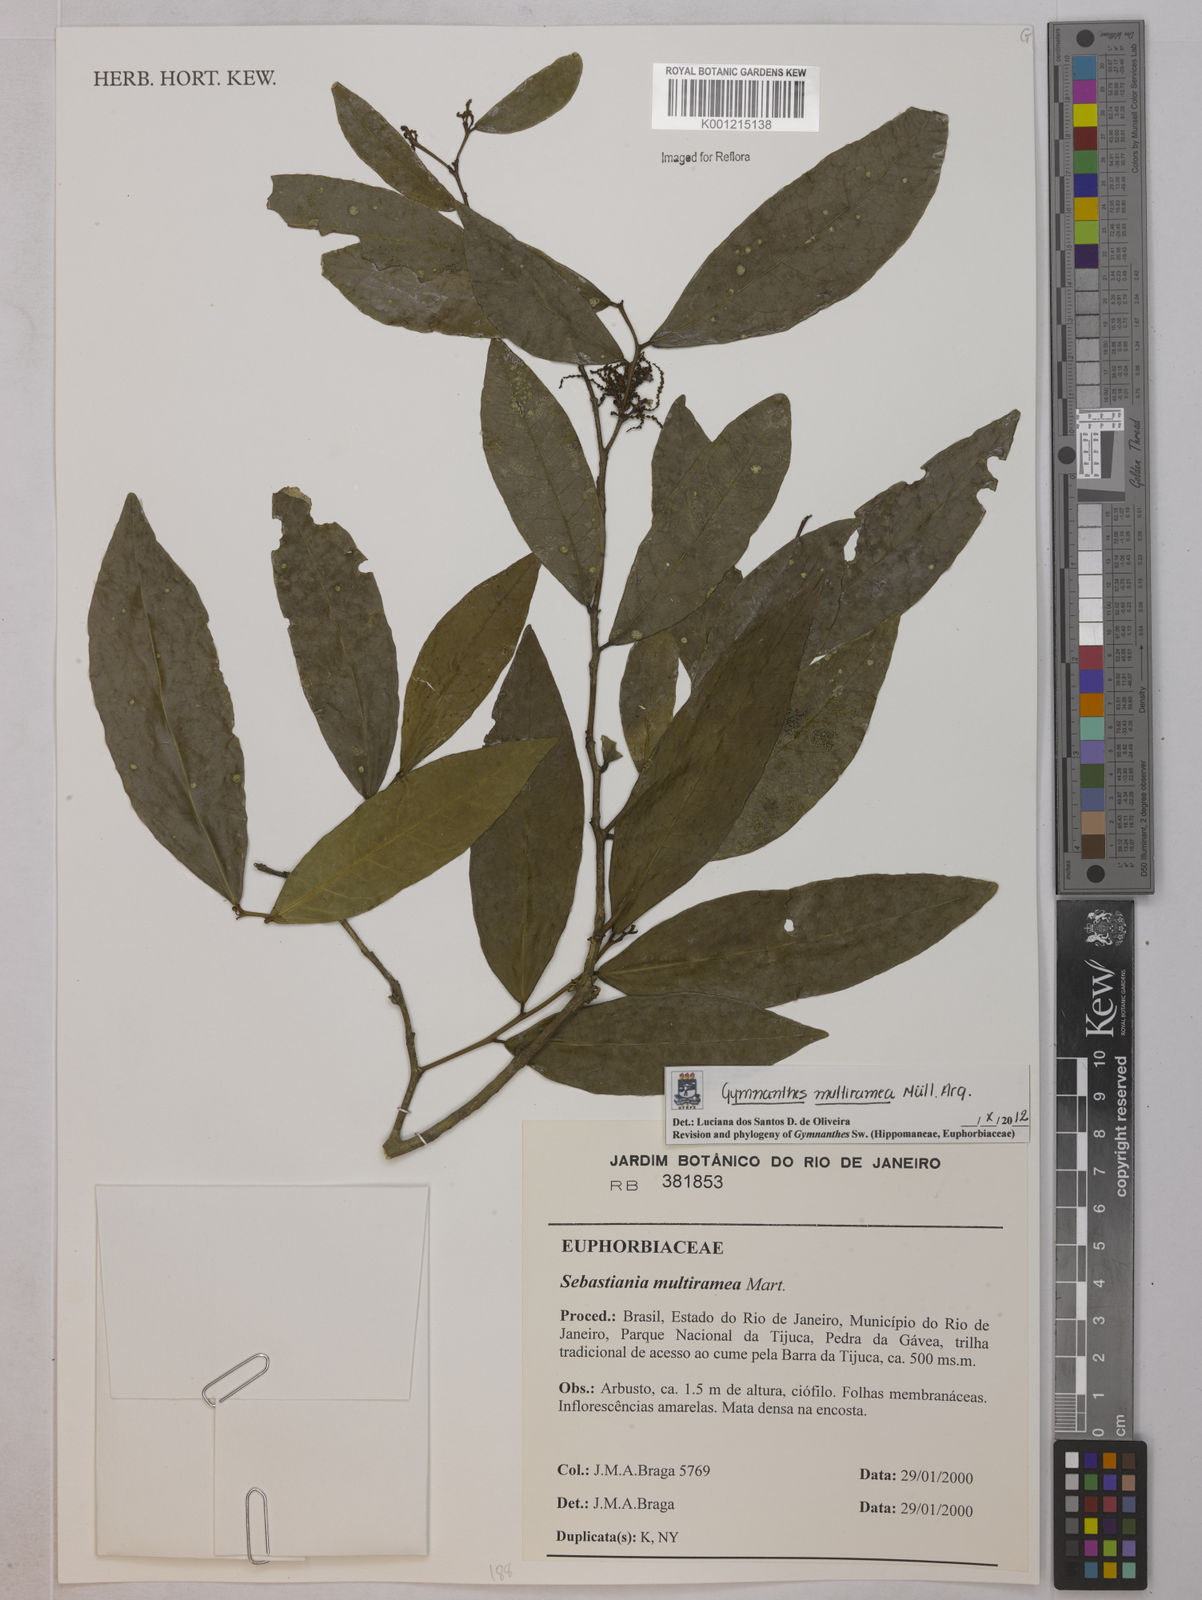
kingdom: Plantae
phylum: Tracheophyta
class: Magnoliopsida
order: Malpighiales
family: Euphorbiaceae
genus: Gymnanthes
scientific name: Gymnanthes
